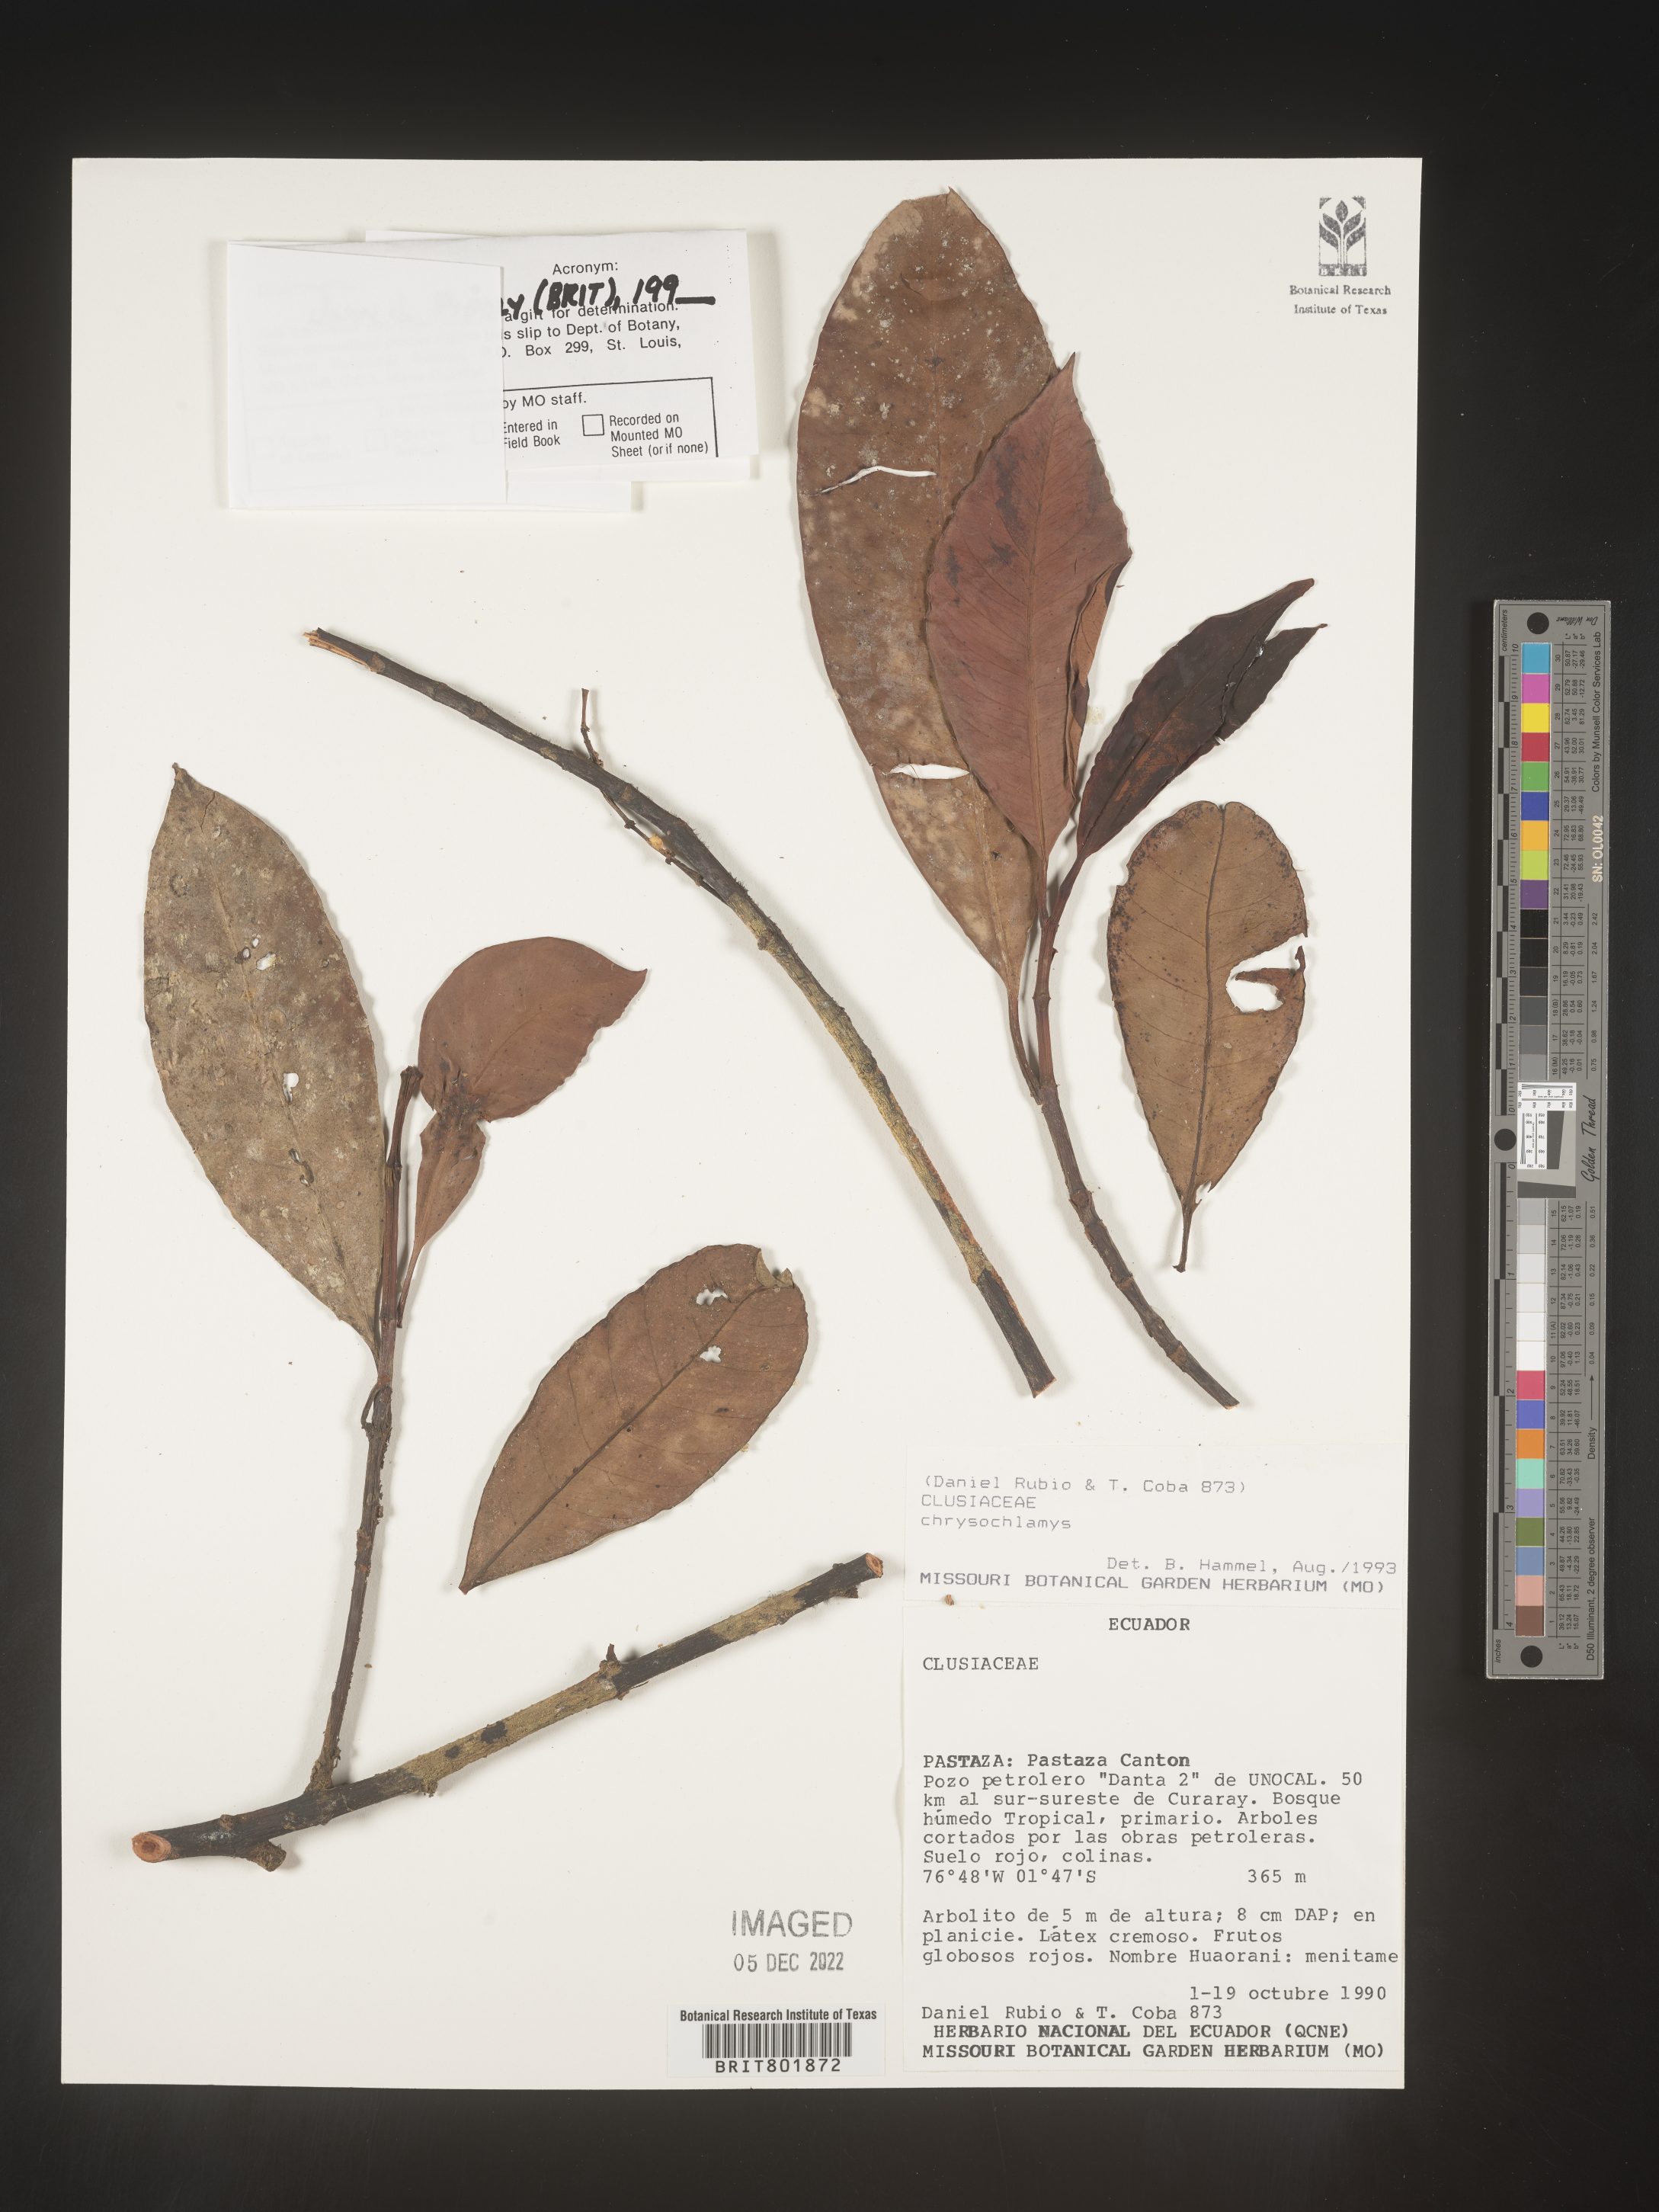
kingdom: Plantae
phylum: Tracheophyta
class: Magnoliopsida
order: Malpighiales
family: Clusiaceae
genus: Chrysochlamys
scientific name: Chrysochlamys
